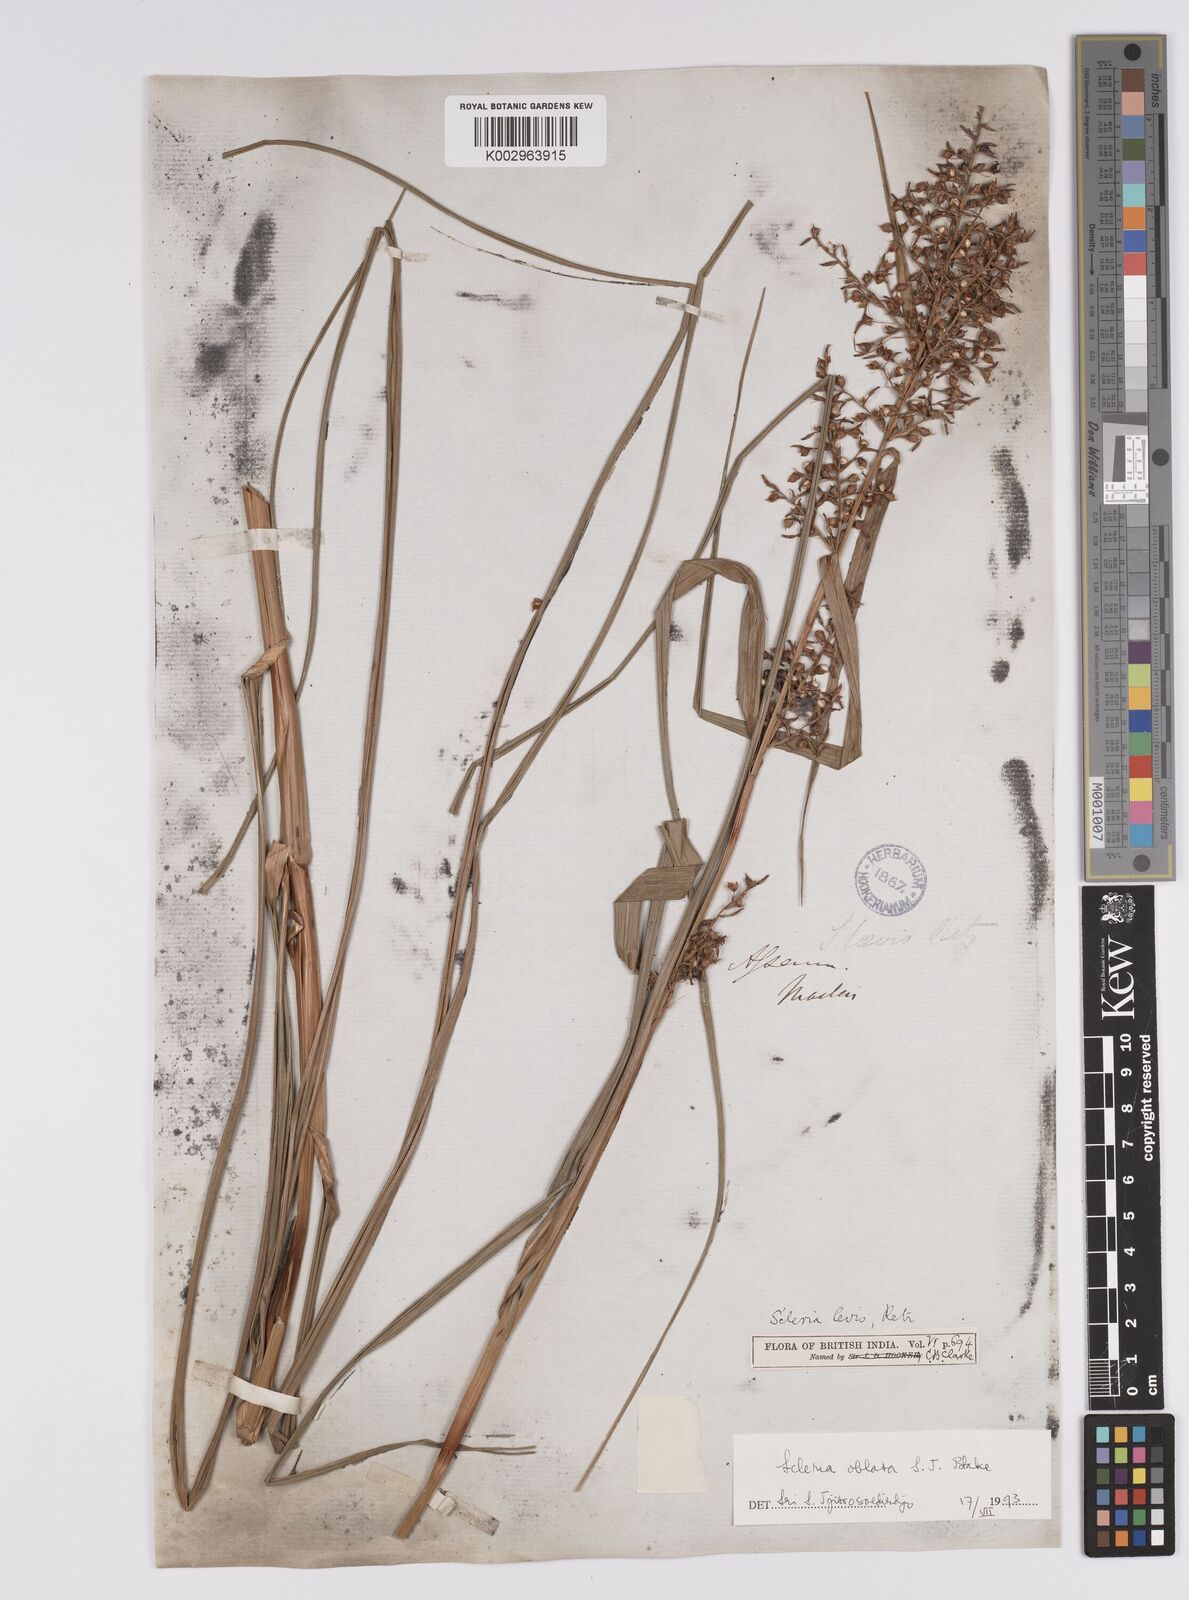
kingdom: Plantae
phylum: Tracheophyta
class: Liliopsida
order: Poales
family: Cyperaceae
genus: Scleria
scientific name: Scleria levis
